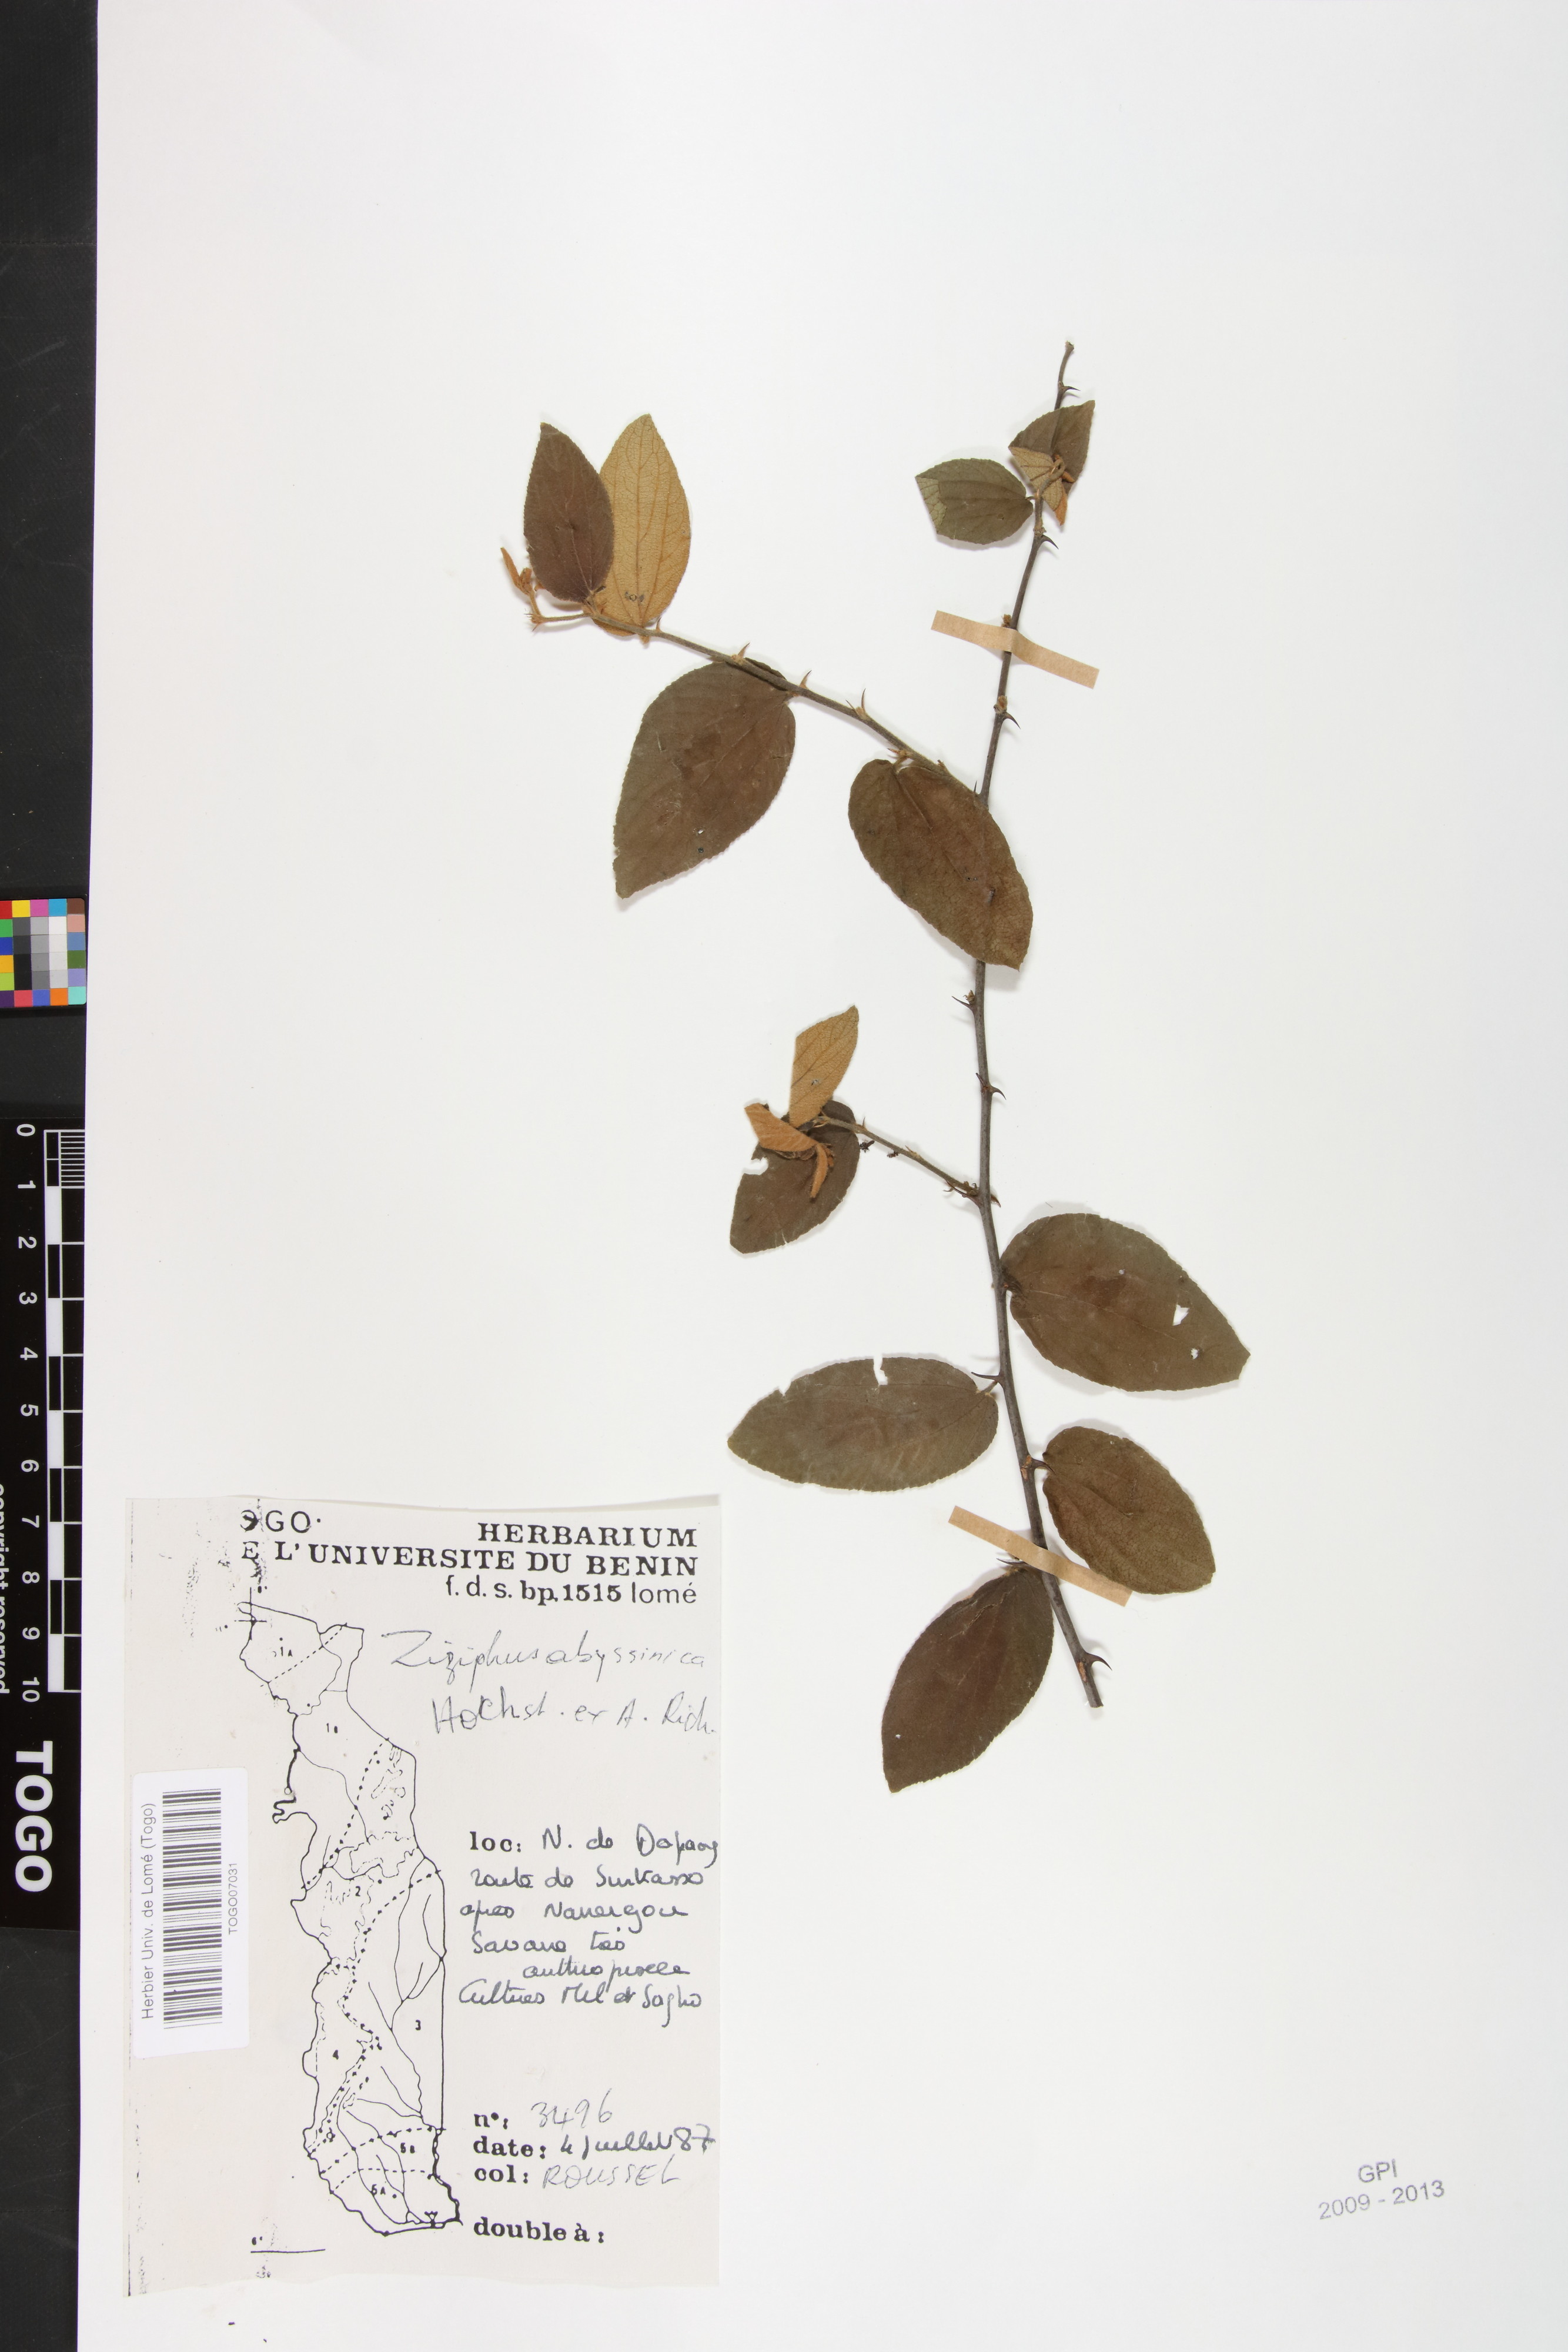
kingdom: Plantae
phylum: Tracheophyta
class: Magnoliopsida
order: Rosales
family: Rhamnaceae
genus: Ziziphus
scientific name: Ziziphus abyssinica
